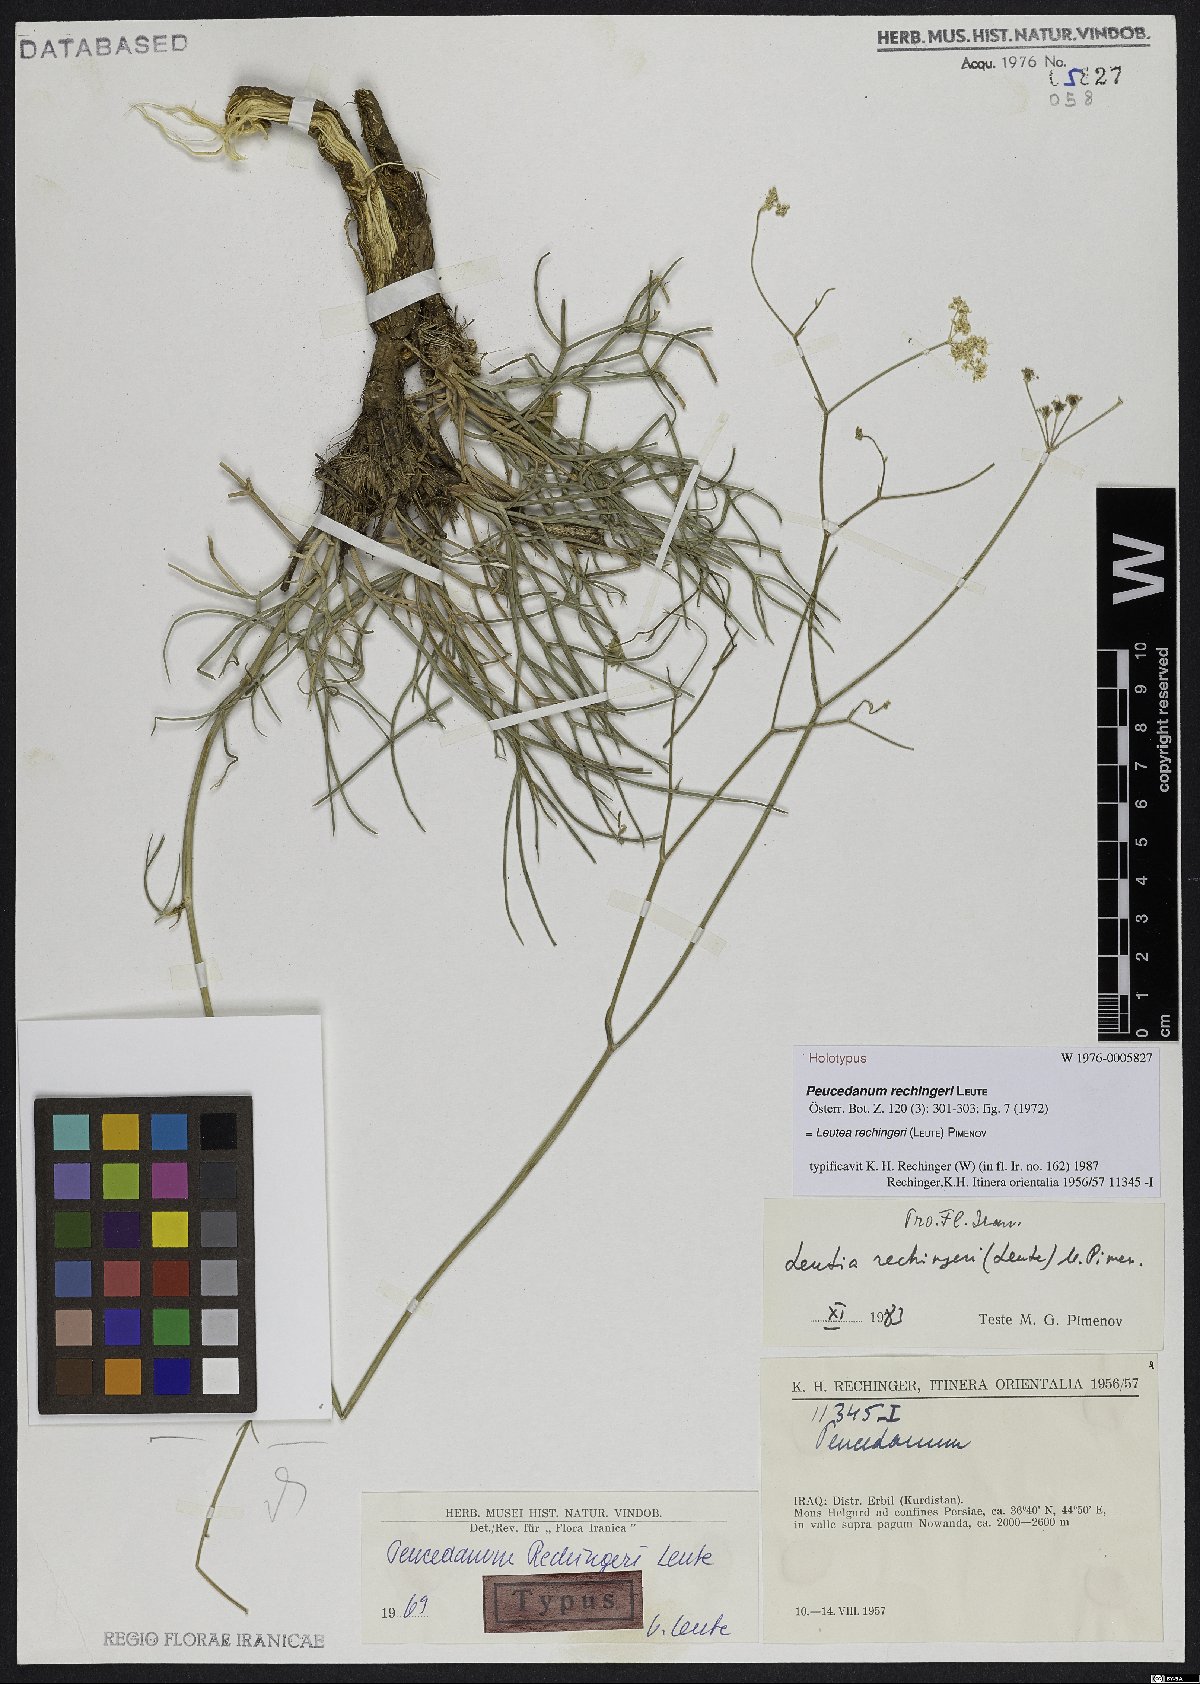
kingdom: Plantae
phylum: Tracheophyta
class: Magnoliopsida
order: Apiales
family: Apiaceae
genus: Leutea
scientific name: Leutea rechingeri
